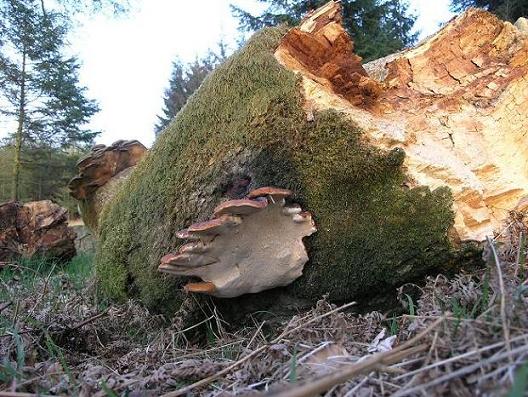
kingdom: Fungi
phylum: Basidiomycota
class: Agaricomycetes
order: Polyporales
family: Fomitopsidaceae
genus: Fomitopsis
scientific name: Fomitopsis pinicola
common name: randbæltet hovporesvamp
